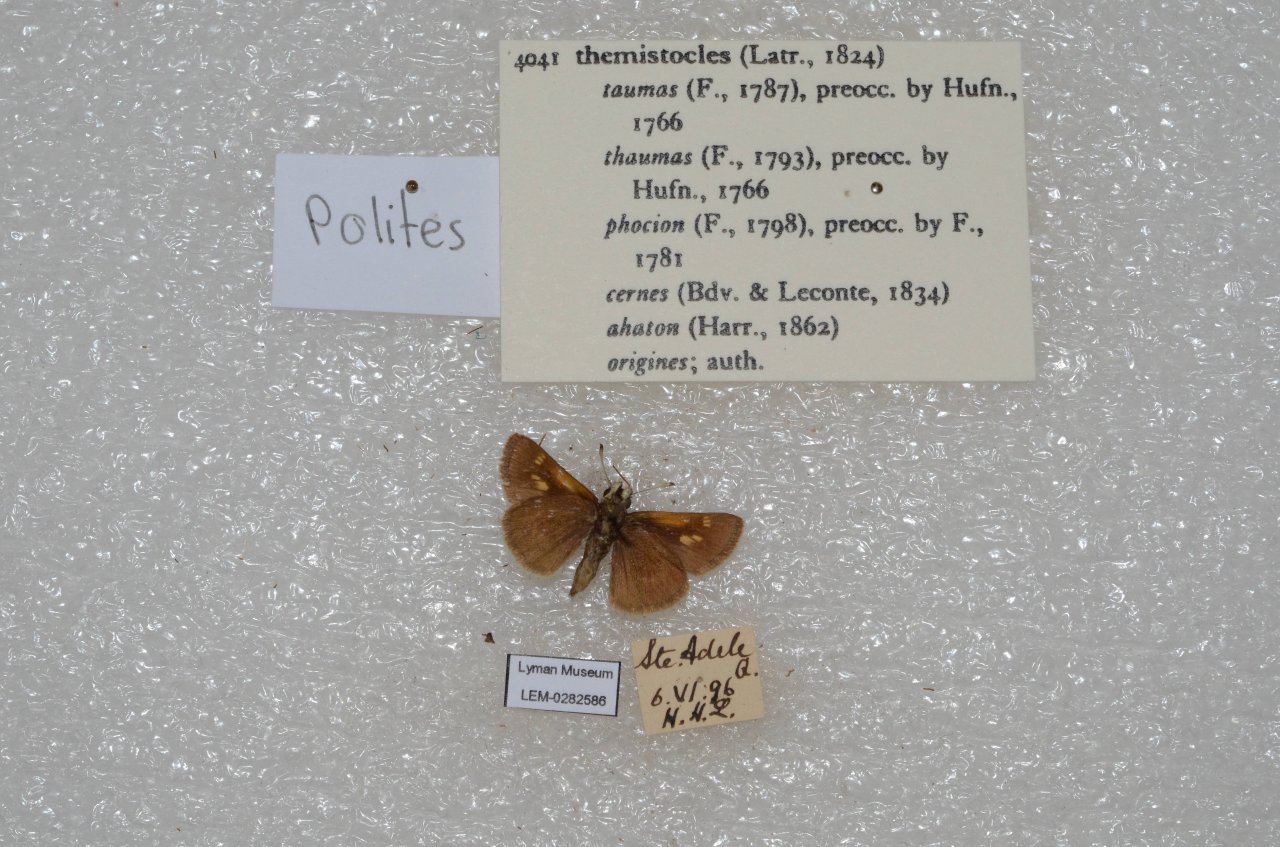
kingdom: Animalia
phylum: Arthropoda
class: Insecta
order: Lepidoptera
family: Hesperiidae
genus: Polites
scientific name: Polites themistocles
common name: Tawny-edged Skipper
